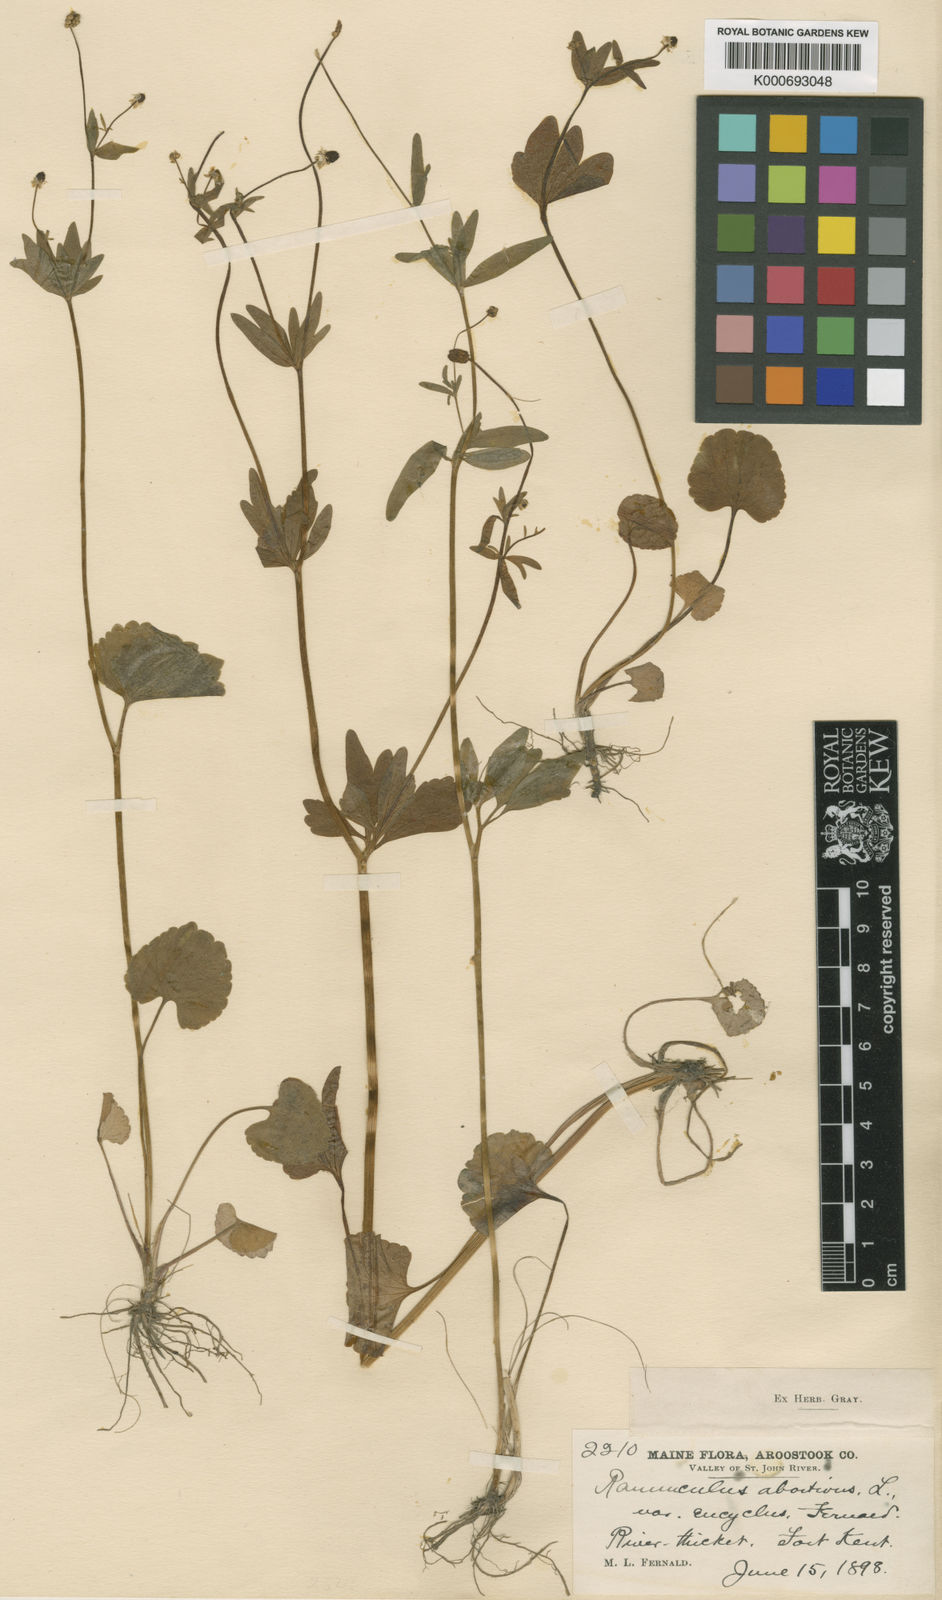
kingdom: Plantae
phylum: Tracheophyta
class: Magnoliopsida
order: Ranunculales
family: Ranunculaceae
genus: Ranunculus
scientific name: Ranunculus abortivus
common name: Early wood buttercup
